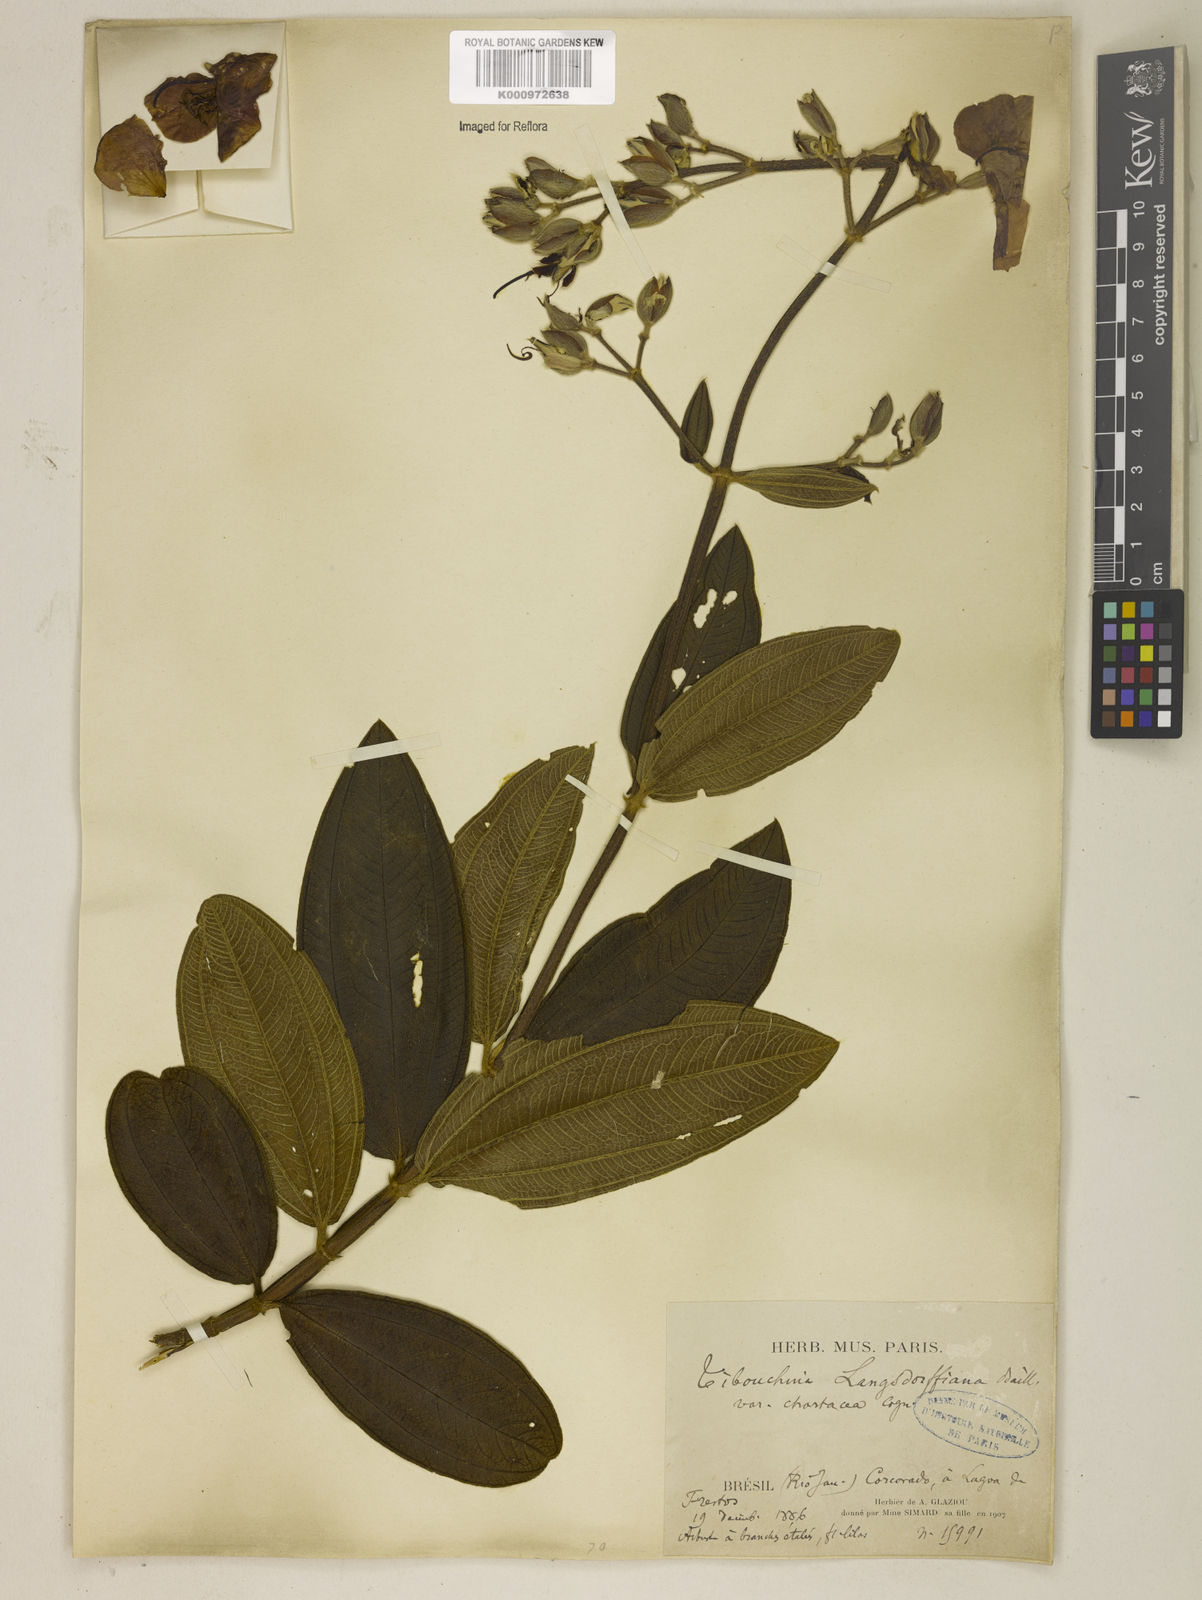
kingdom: Plantae
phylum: Tracheophyta
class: Magnoliopsida
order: Myrtales
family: Melastomataceae
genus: Pleroma
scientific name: Pleroma langsdorfianum
